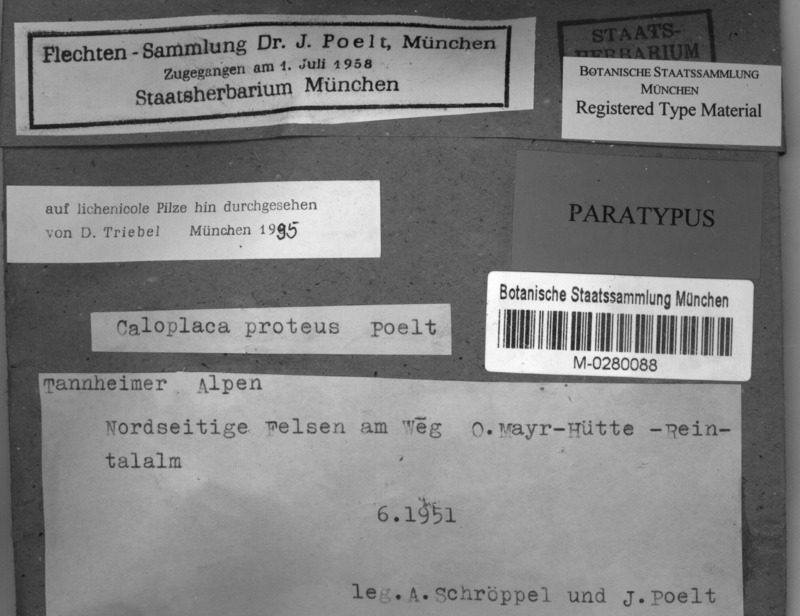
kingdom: Fungi
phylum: Ascomycota
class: Lecanoromycetes
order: Teloschistales
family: Teloschistaceae
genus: Leproplaca
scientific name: Leproplaca proteus
